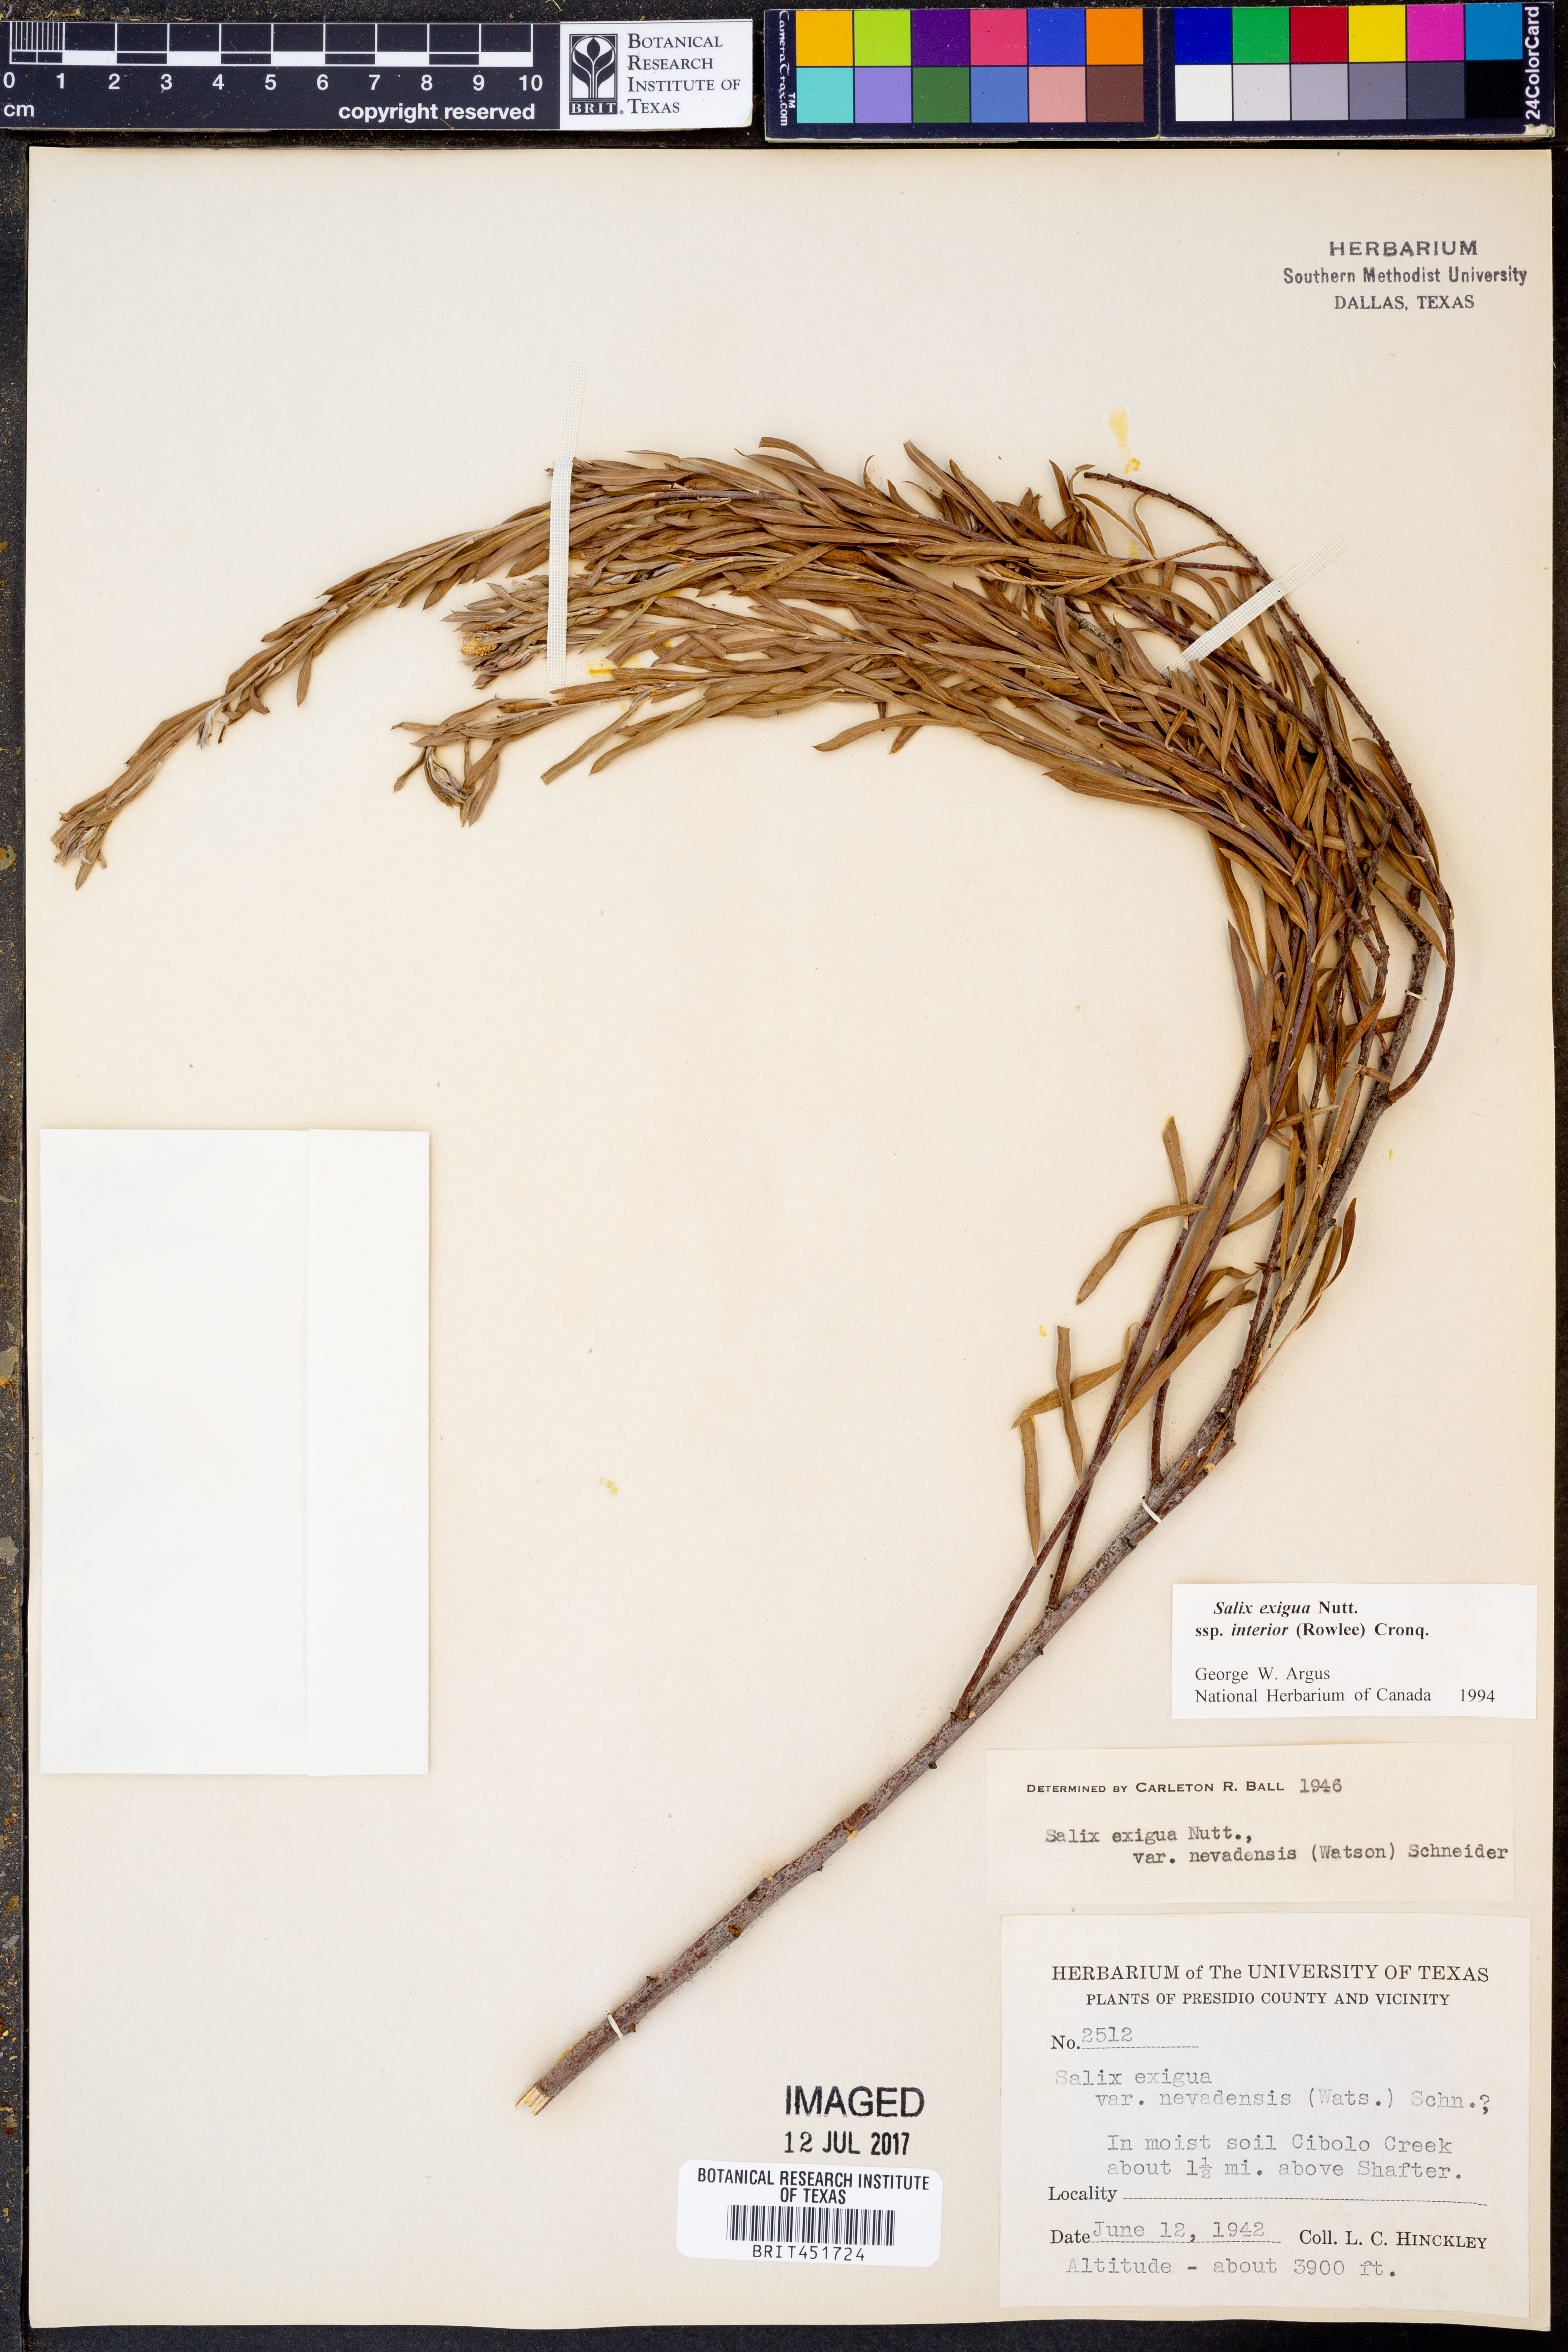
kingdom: Plantae
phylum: Tracheophyta
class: Magnoliopsida
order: Malpighiales
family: Salicaceae
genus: Salix
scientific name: Salix interior
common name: Sandbar willow
